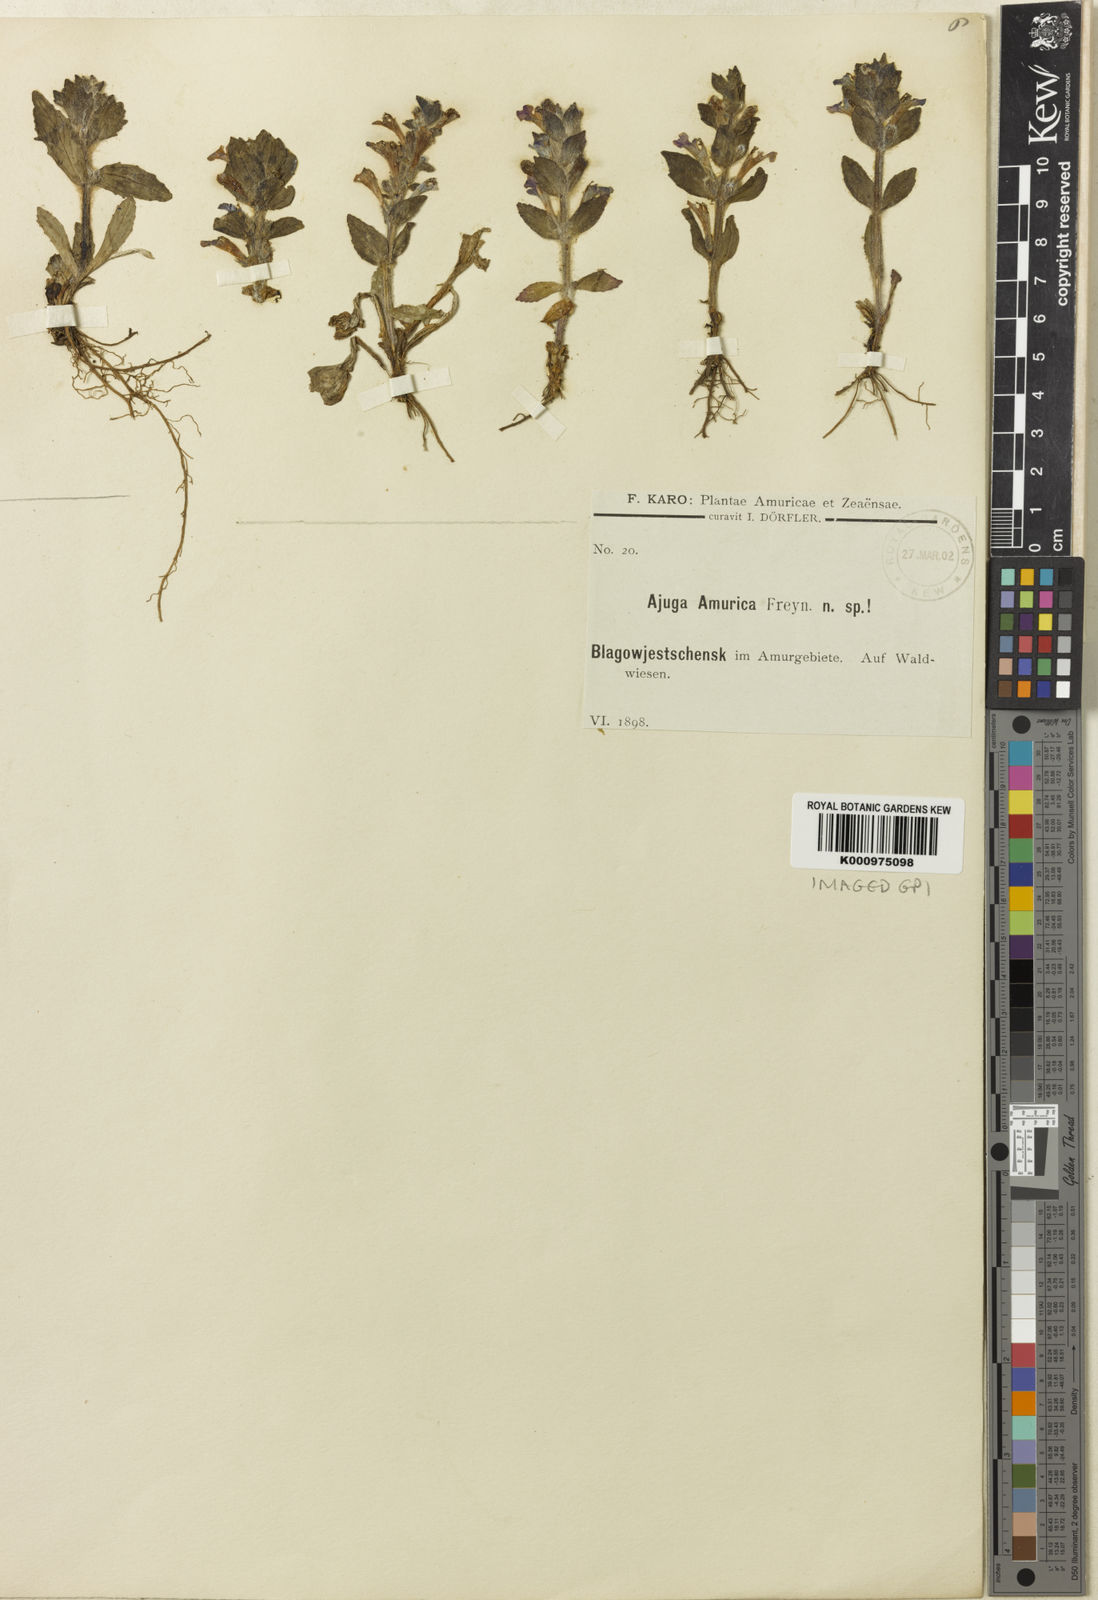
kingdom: Plantae
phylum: Tracheophyta
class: Magnoliopsida
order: Lamiales
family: Lamiaceae
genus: Ajuga
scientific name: Ajuga multiflora
